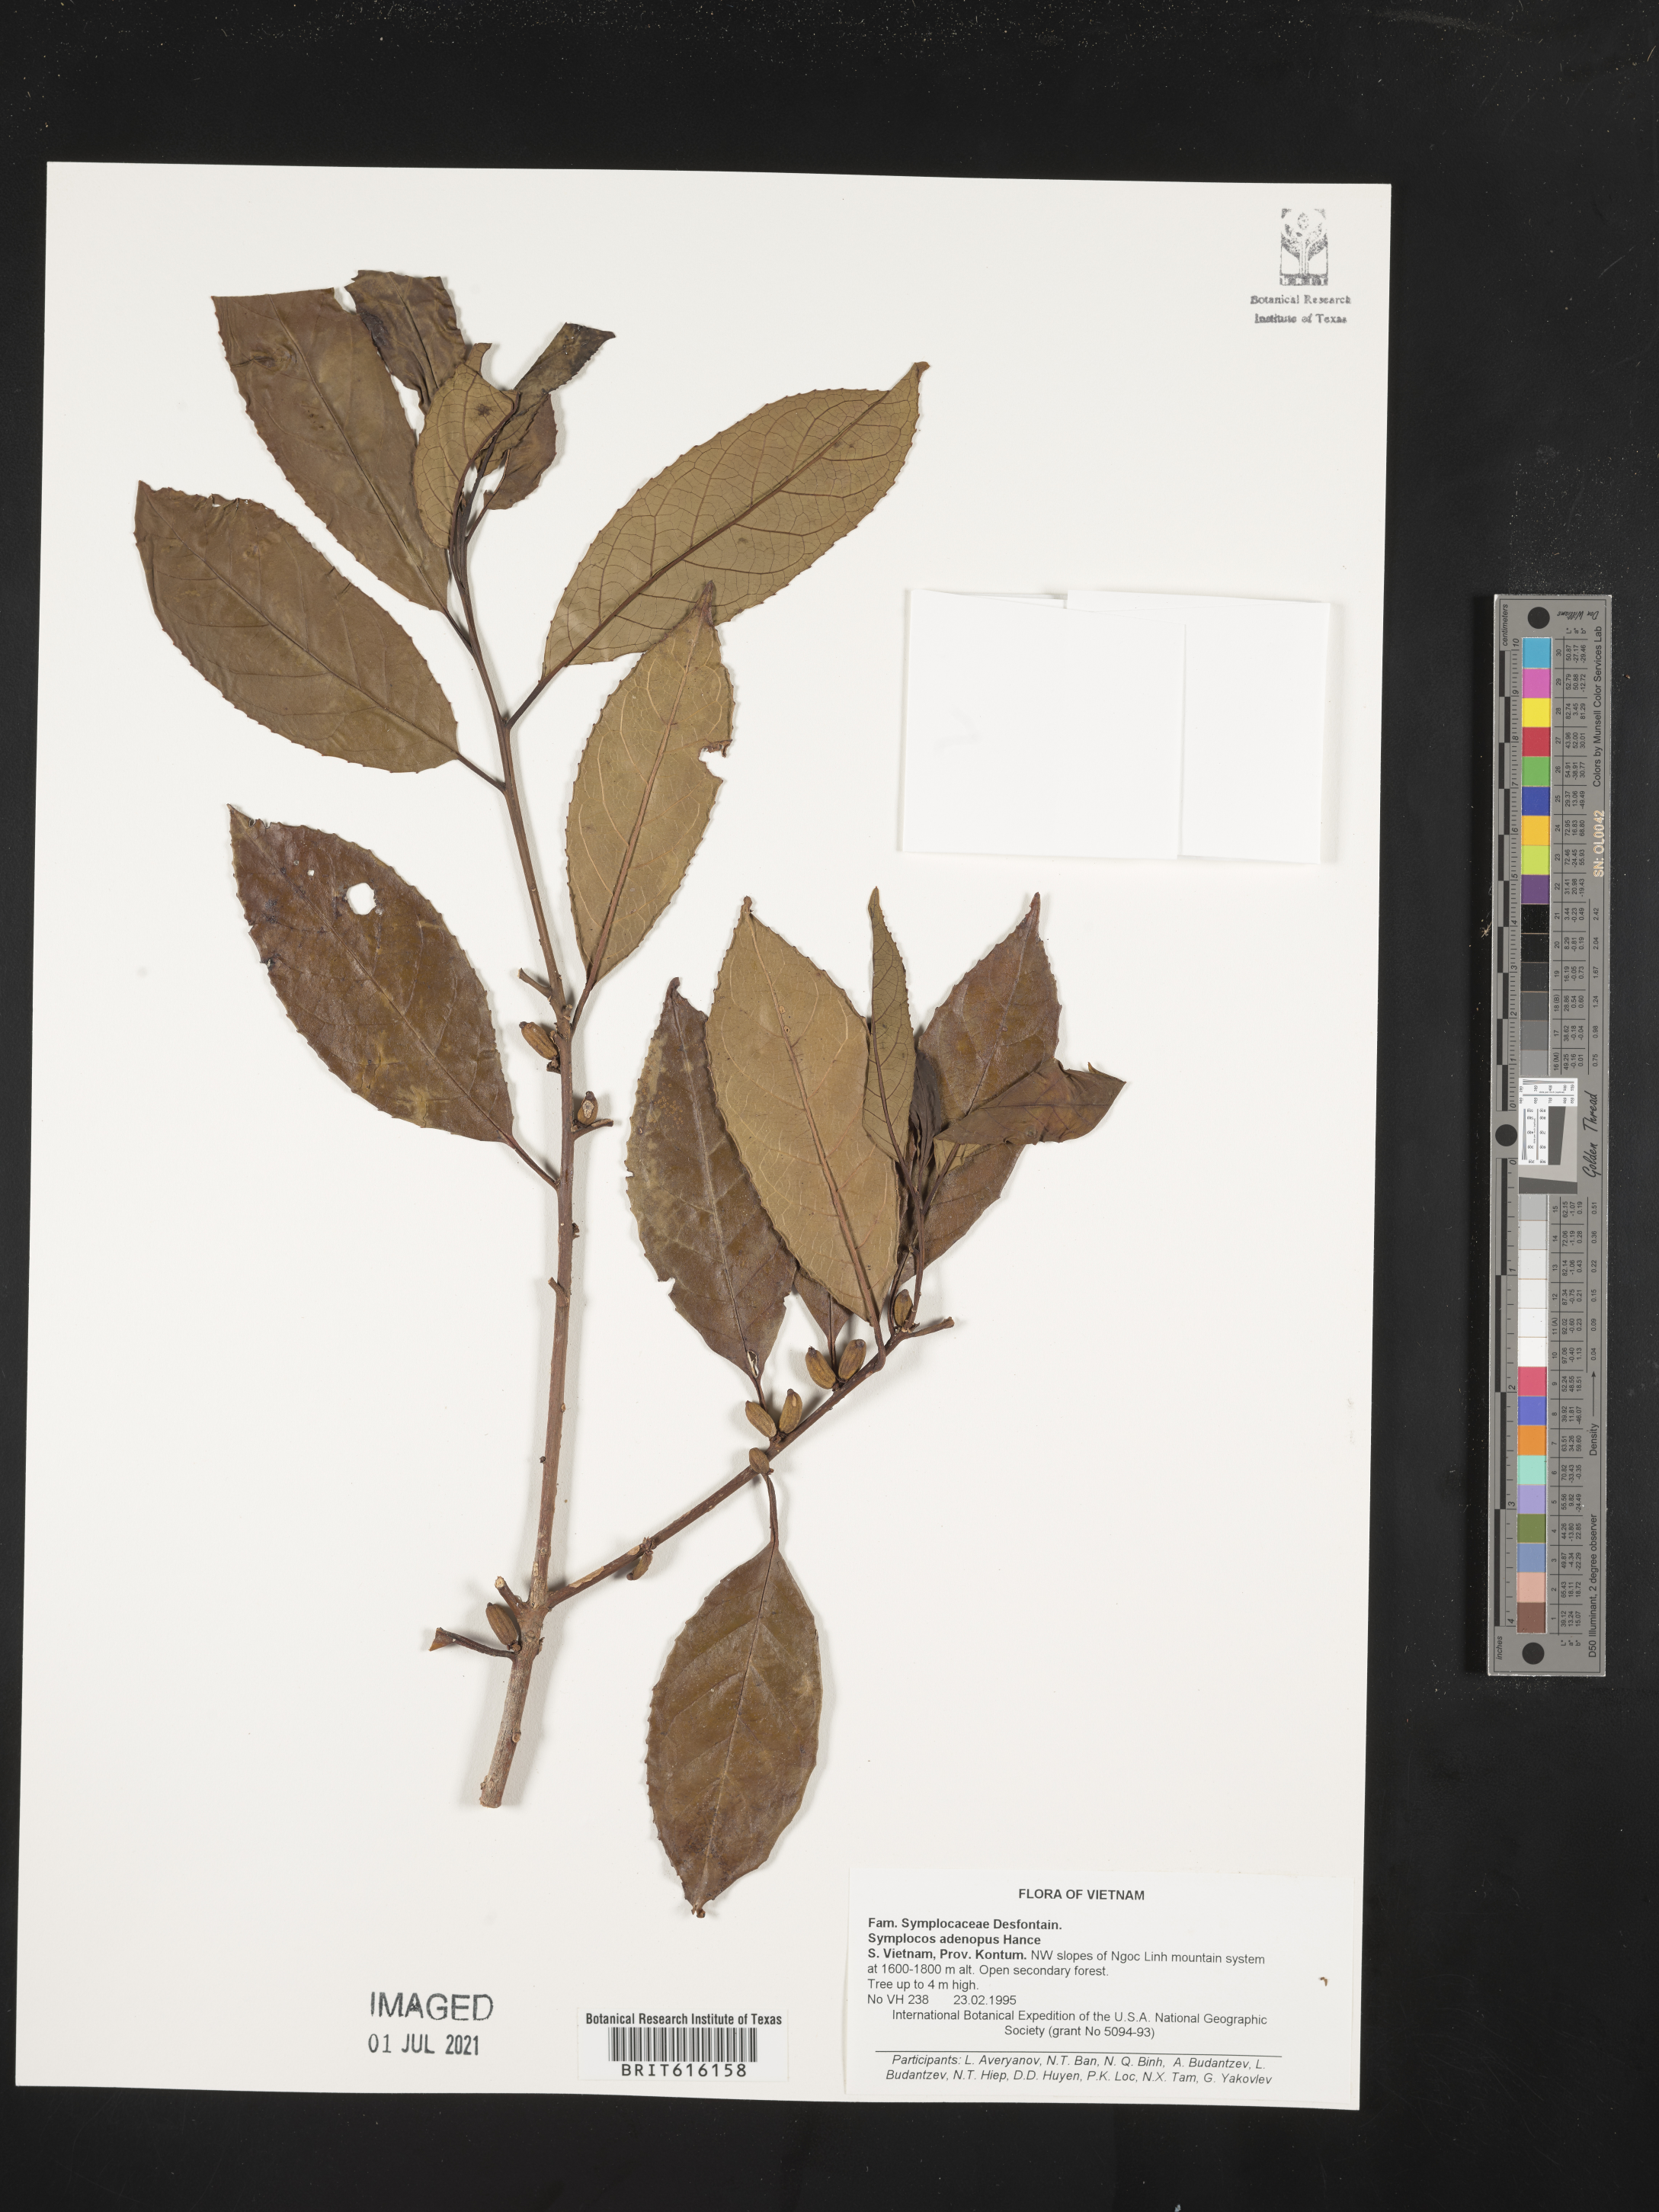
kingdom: Plantae
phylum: Tracheophyta
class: Magnoliopsida
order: Ericales
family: Symplocaceae
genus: Symplocos
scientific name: Symplocos adenopus
